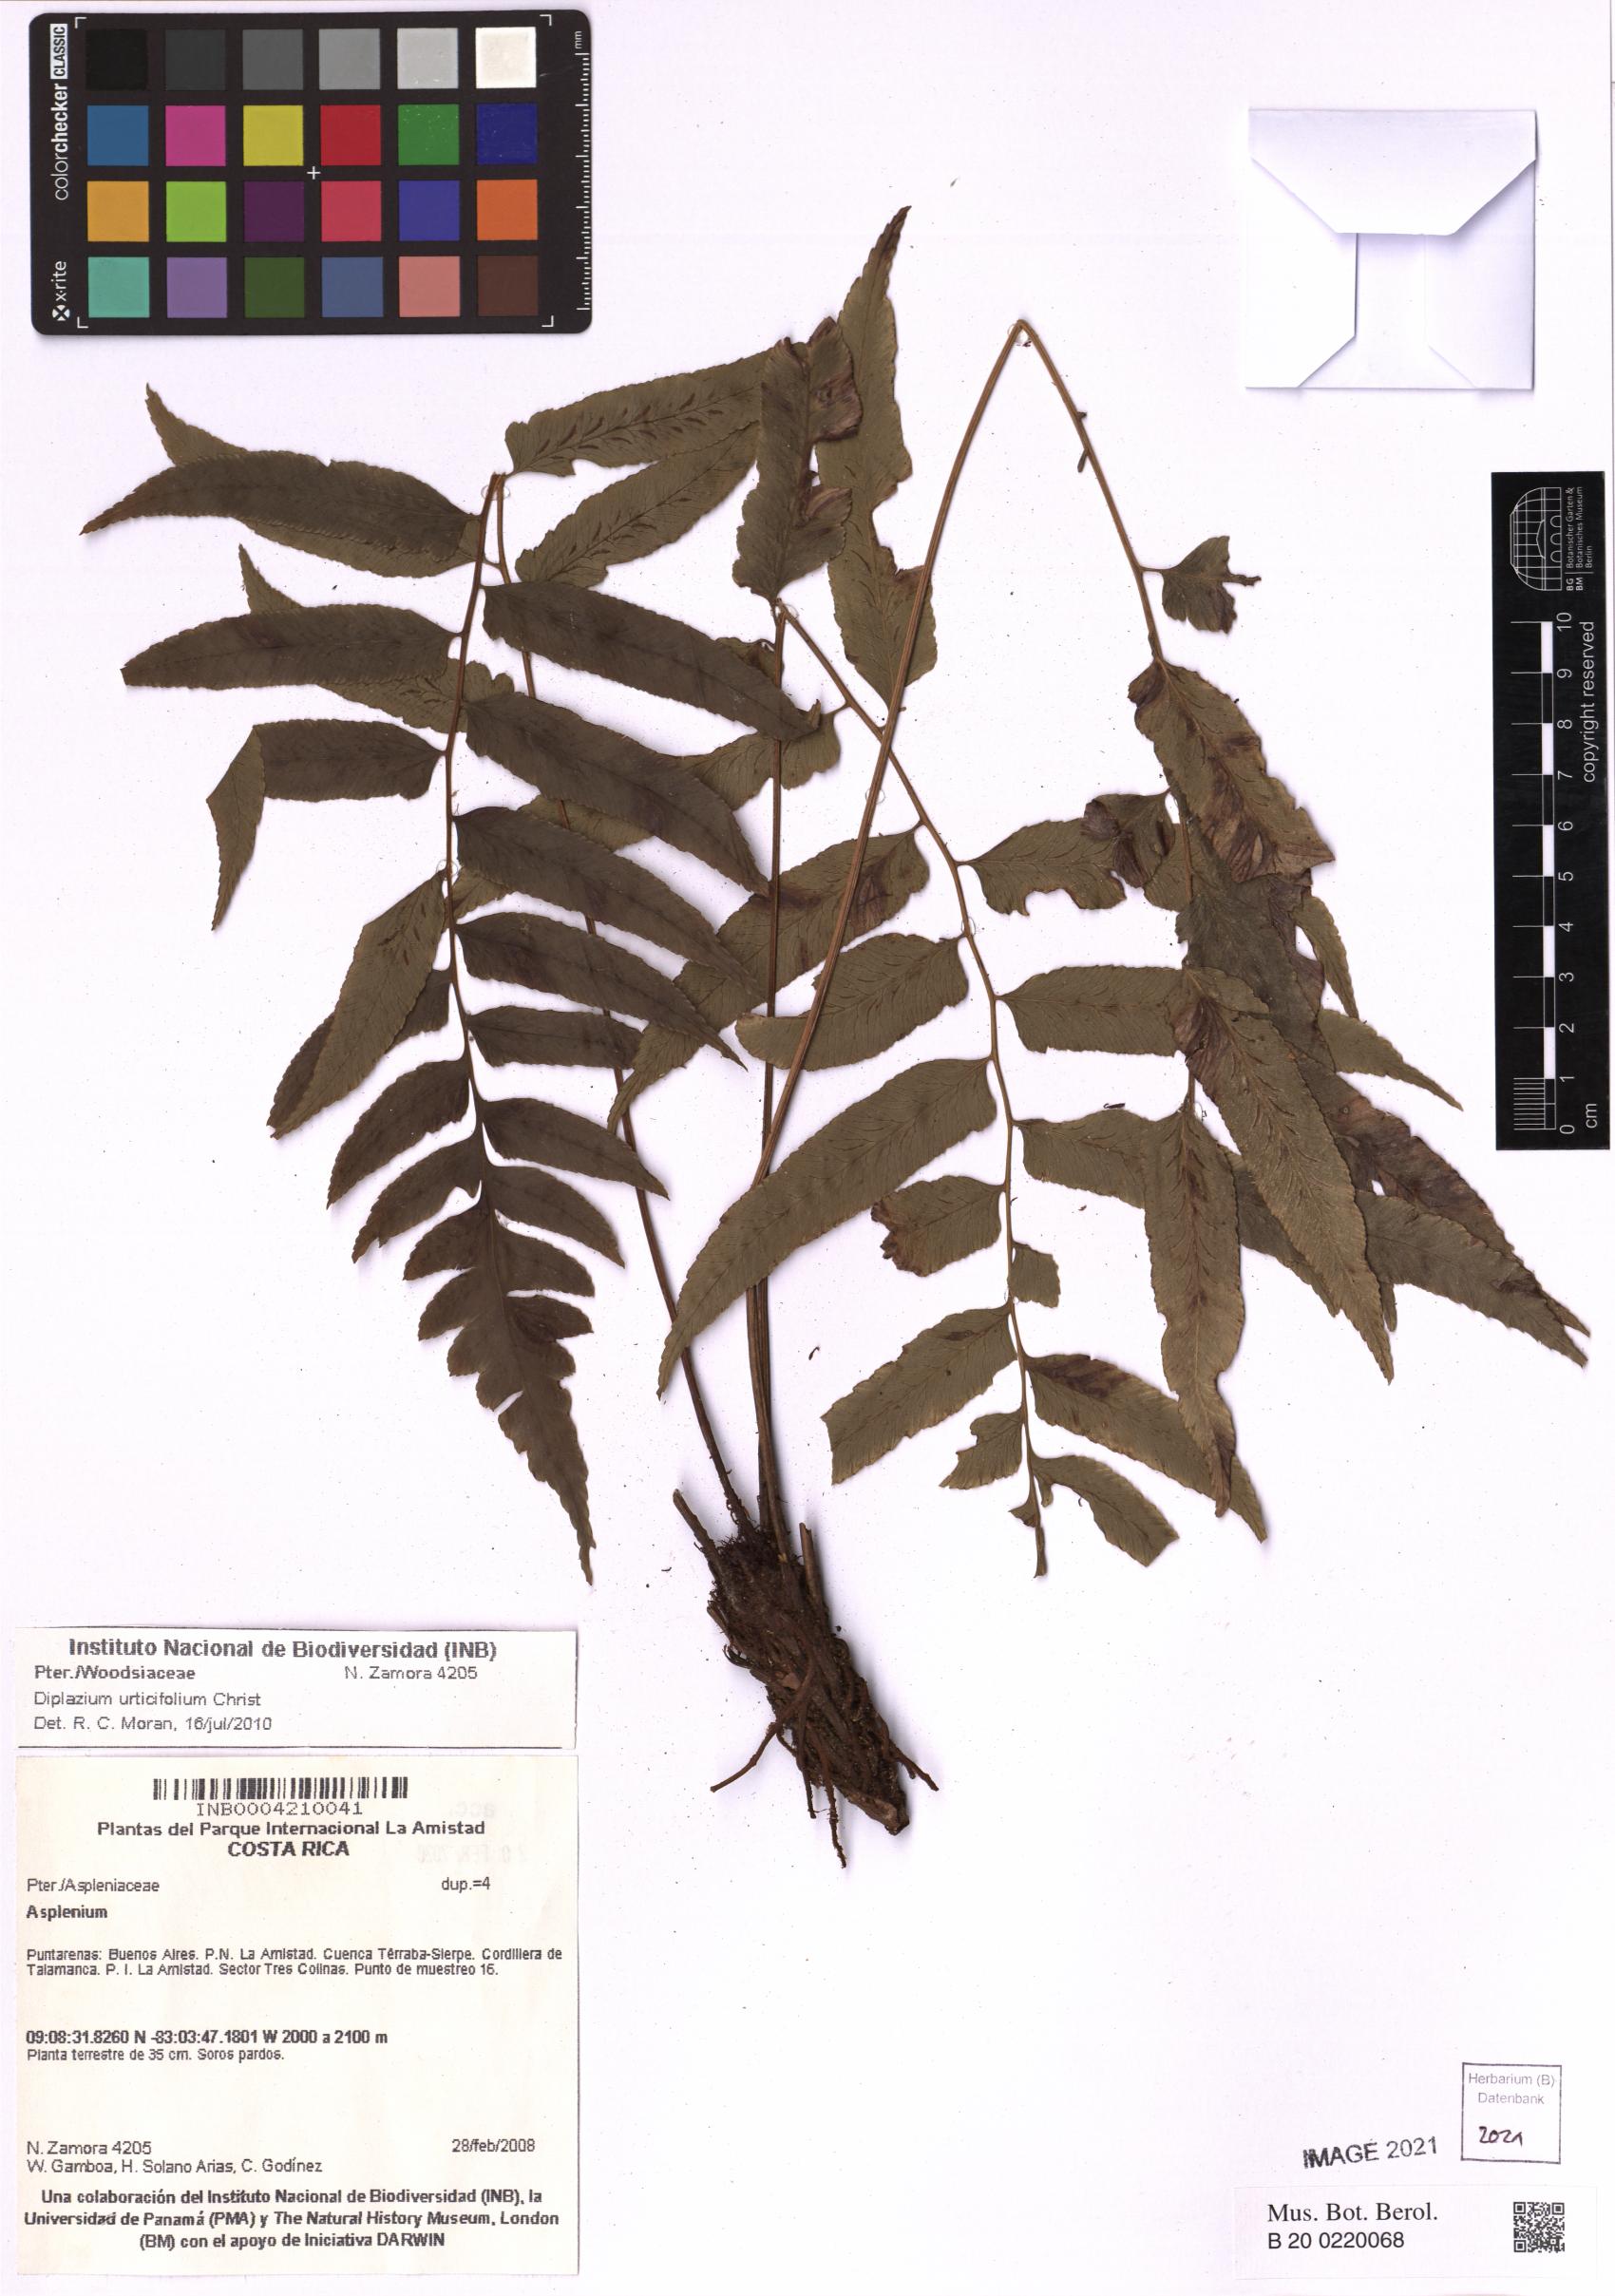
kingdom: Plantae
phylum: Tracheophyta
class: Polypodiopsida
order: Polypodiales
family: Athyriaceae
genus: Diplazium
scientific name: Diplazium urticifolium
